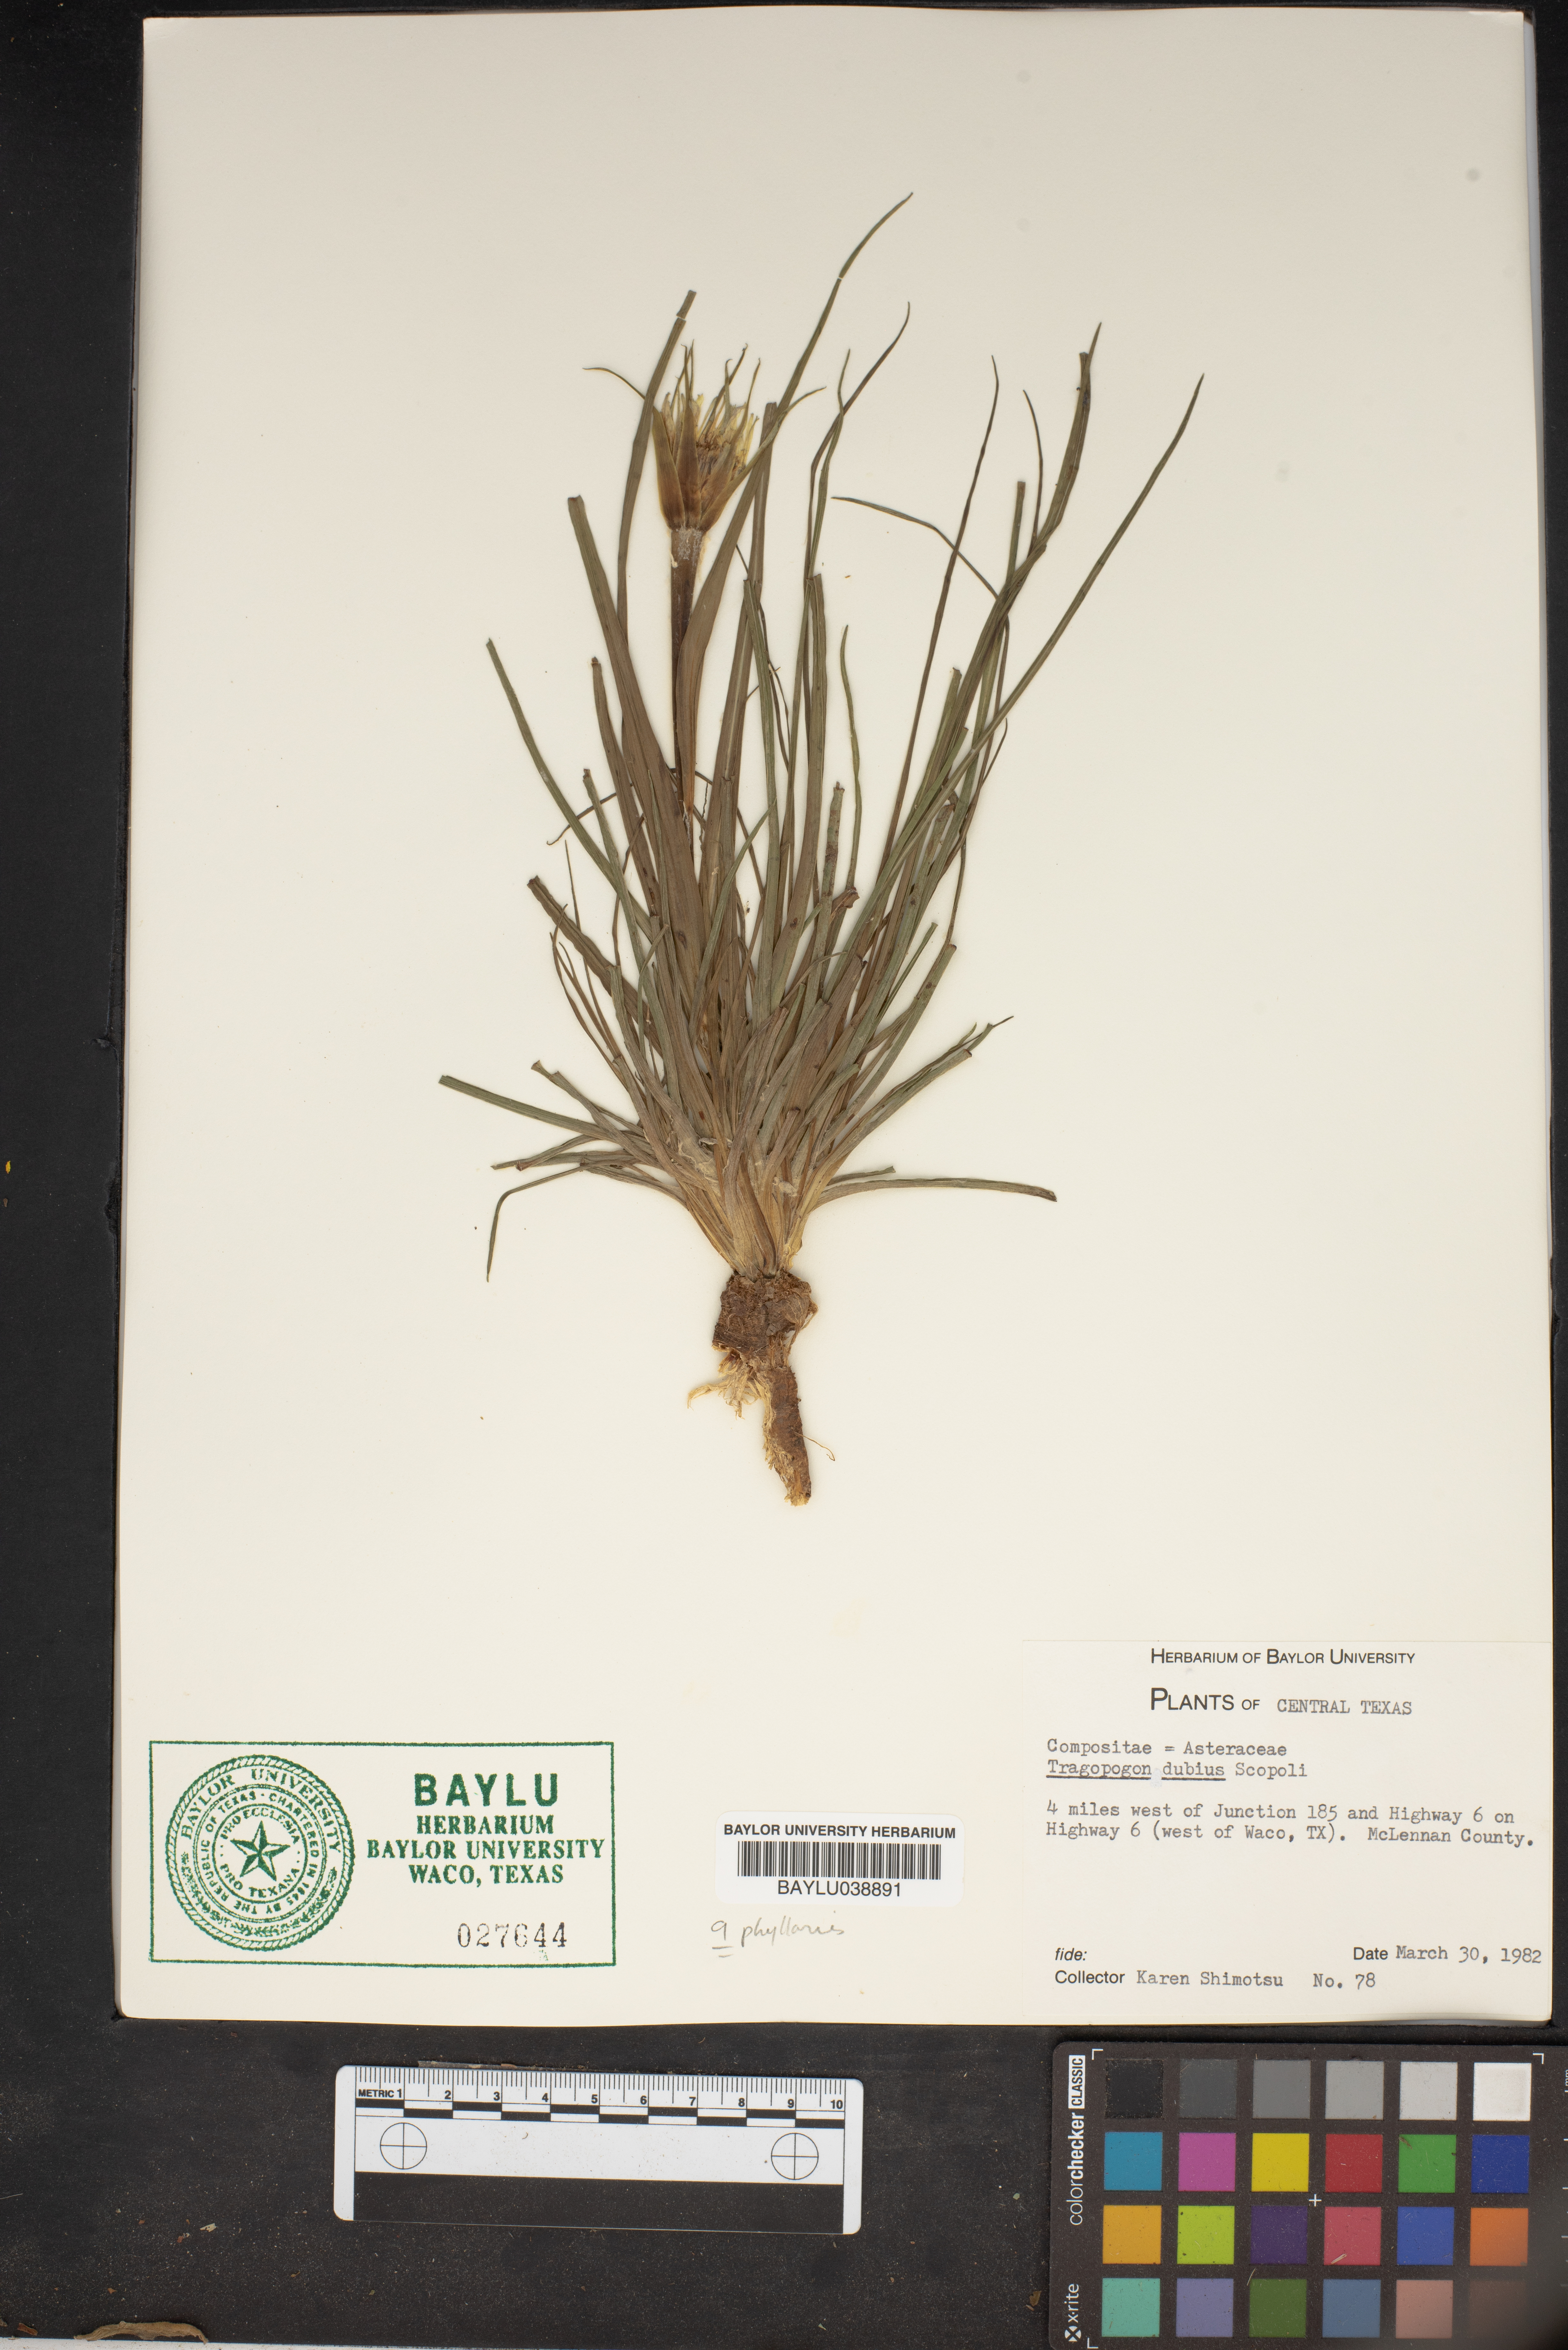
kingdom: Plantae
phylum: Tracheophyta
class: Magnoliopsida
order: Asterales
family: Asteraceae
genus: Tragopogon
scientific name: Tragopogon dubius
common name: Yellow salsify
